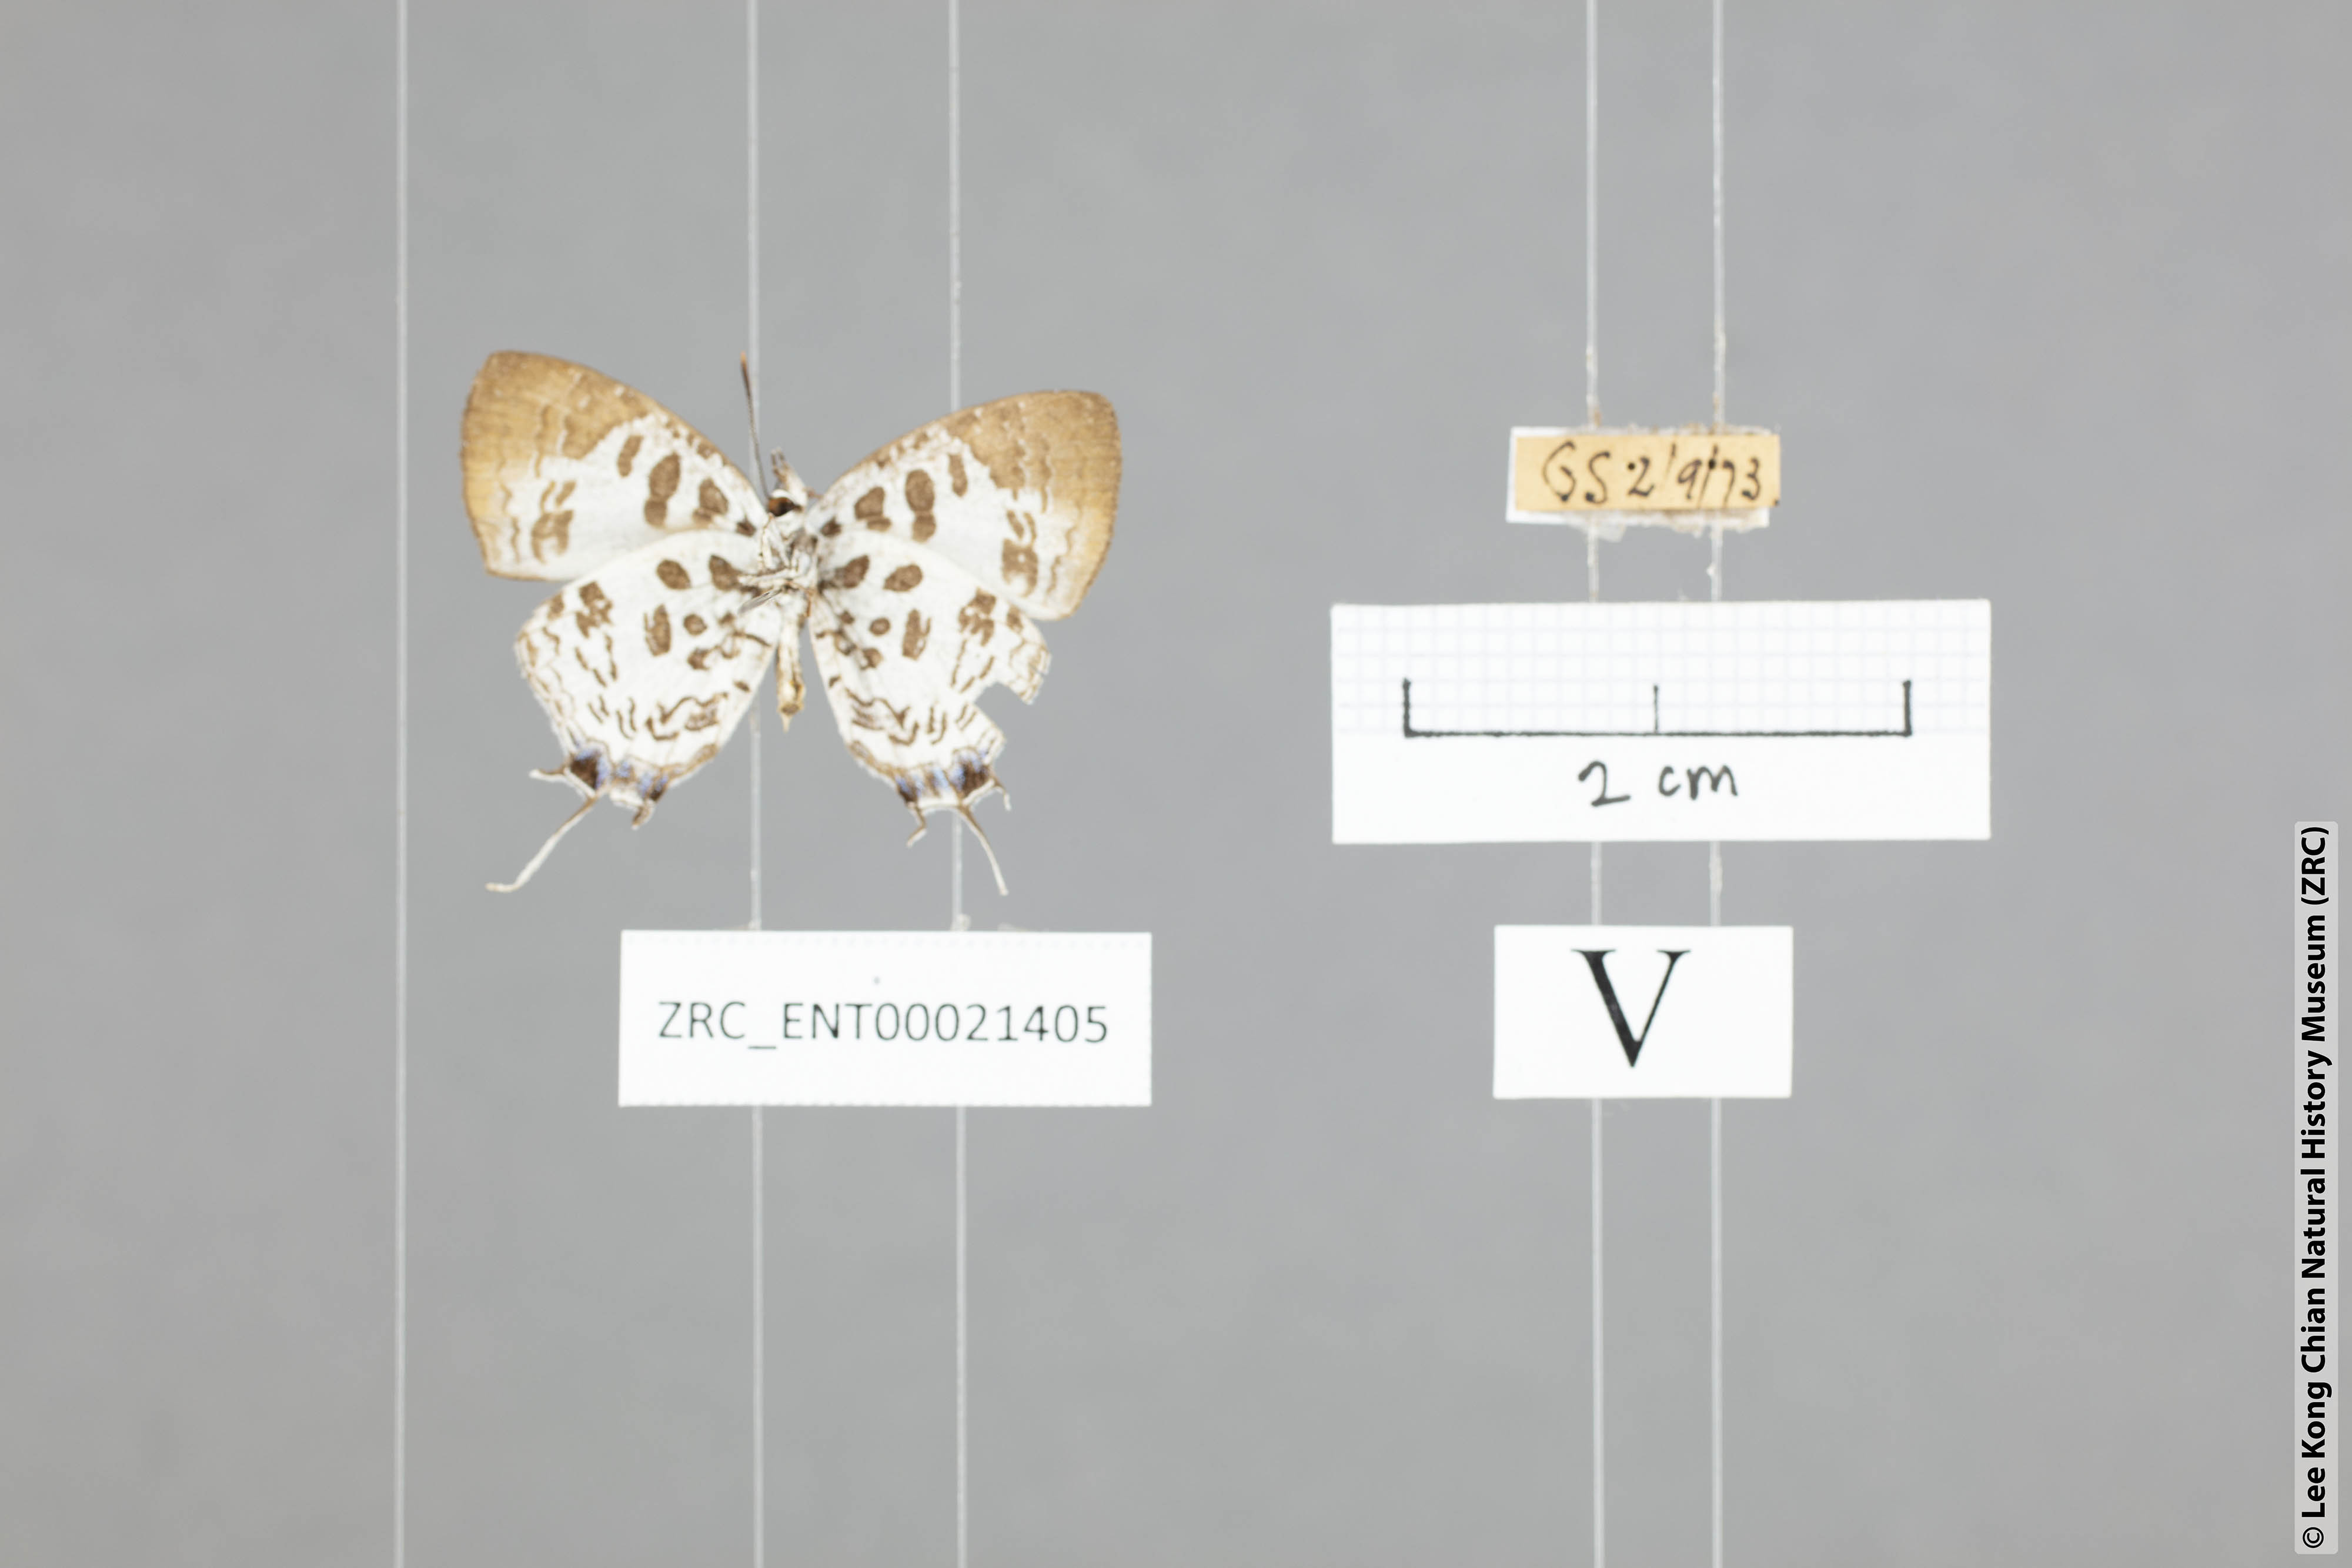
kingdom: Animalia
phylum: Arthropoda
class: Insecta
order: Lepidoptera
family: Lycaenidae
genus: Drupadia
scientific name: Drupadia scaeva
